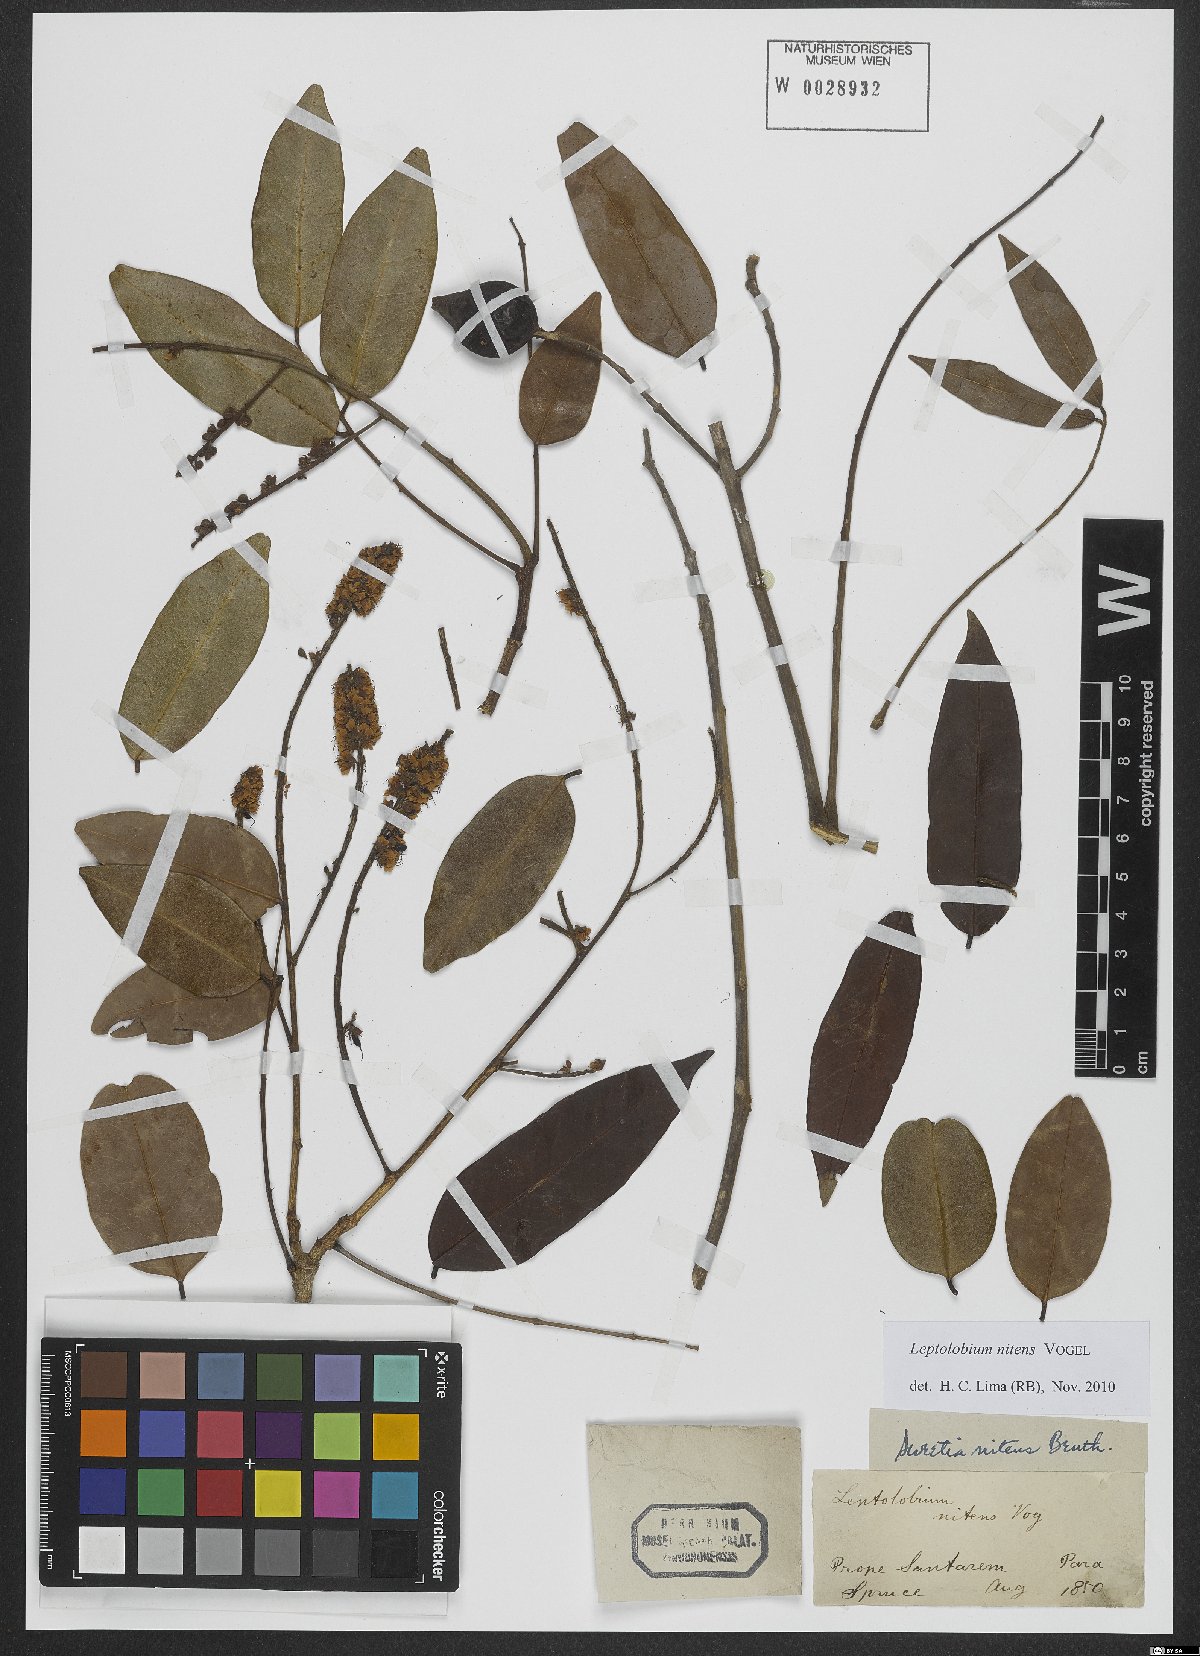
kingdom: Plantae
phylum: Tracheophyta
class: Magnoliopsida
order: Fabales
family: Fabaceae
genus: Leptolobium
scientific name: Leptolobium nitens
